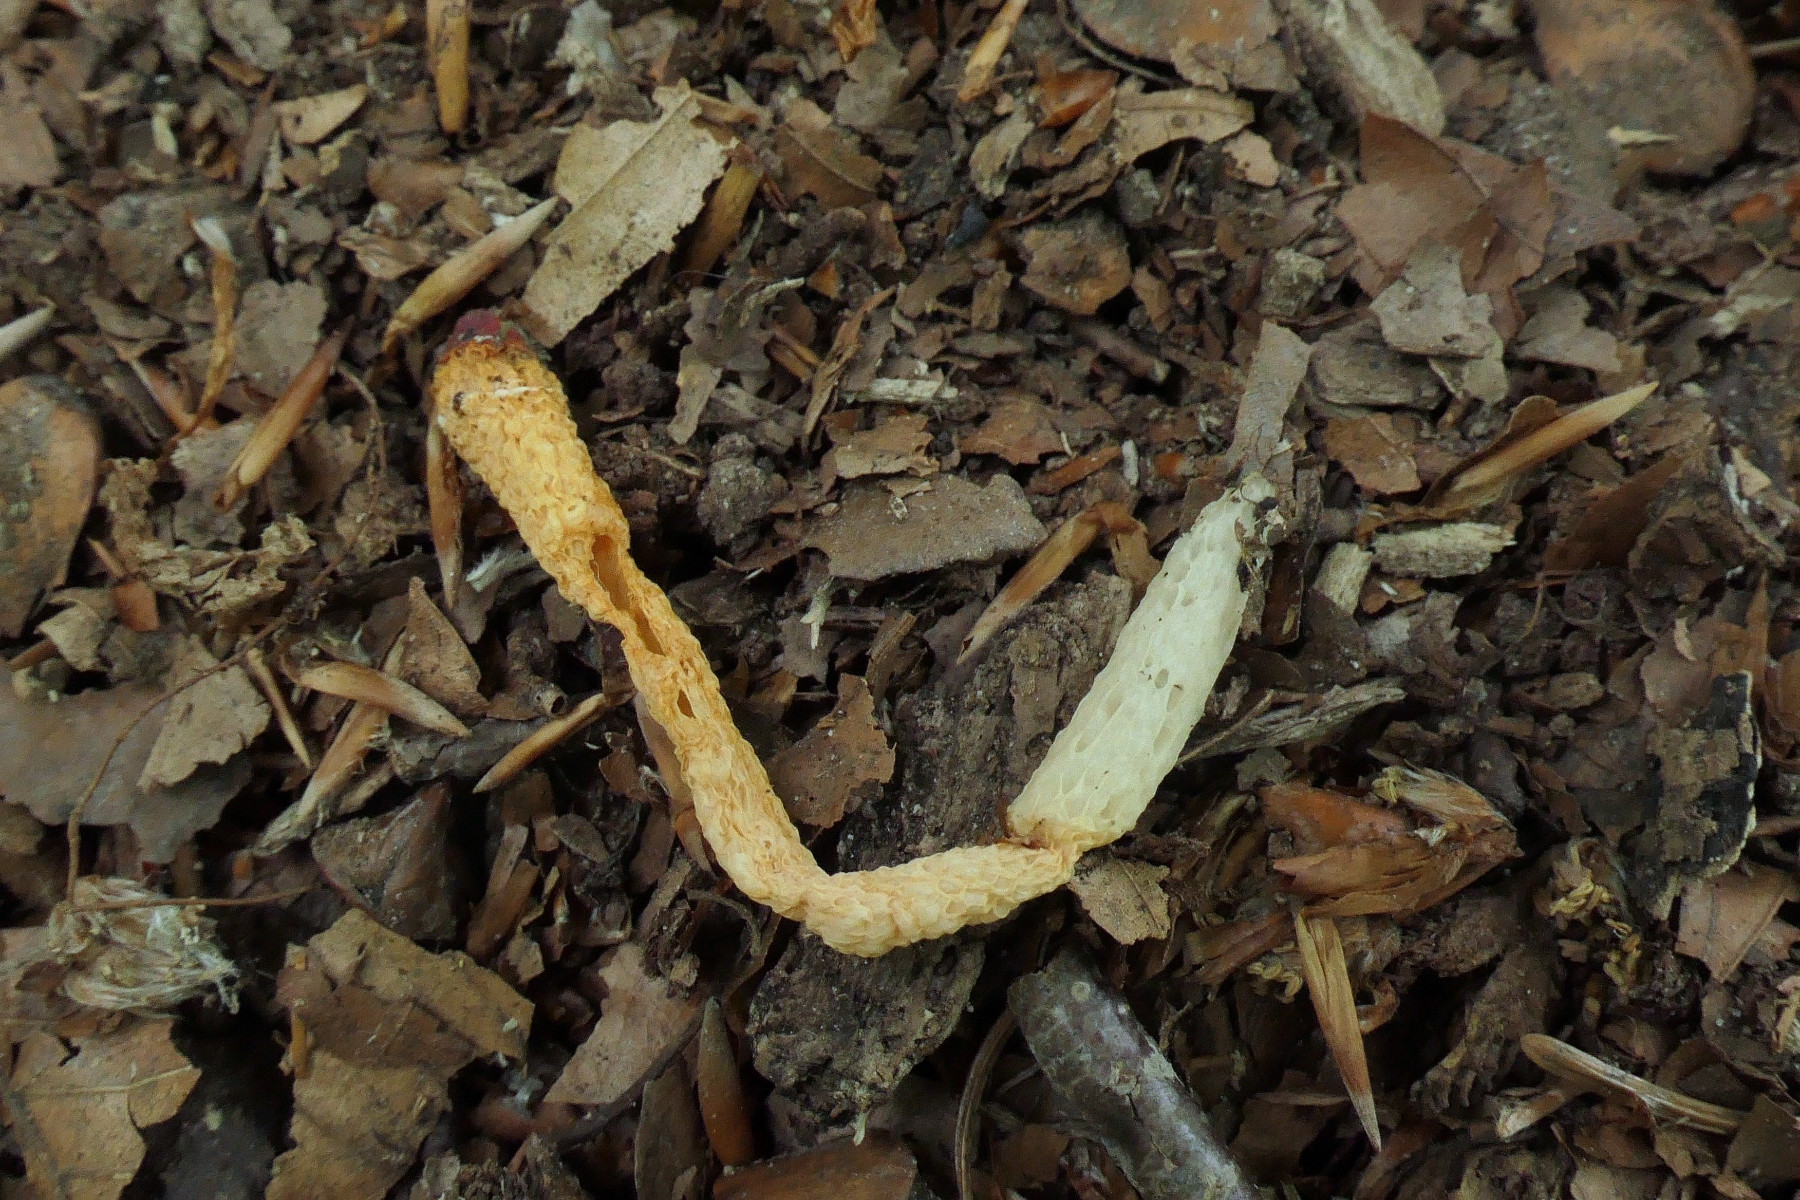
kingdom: Fungi
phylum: Basidiomycota
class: Agaricomycetes
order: Phallales
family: Phallaceae
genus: Mutinus
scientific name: Mutinus caninus
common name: hunde-stinksvamp
